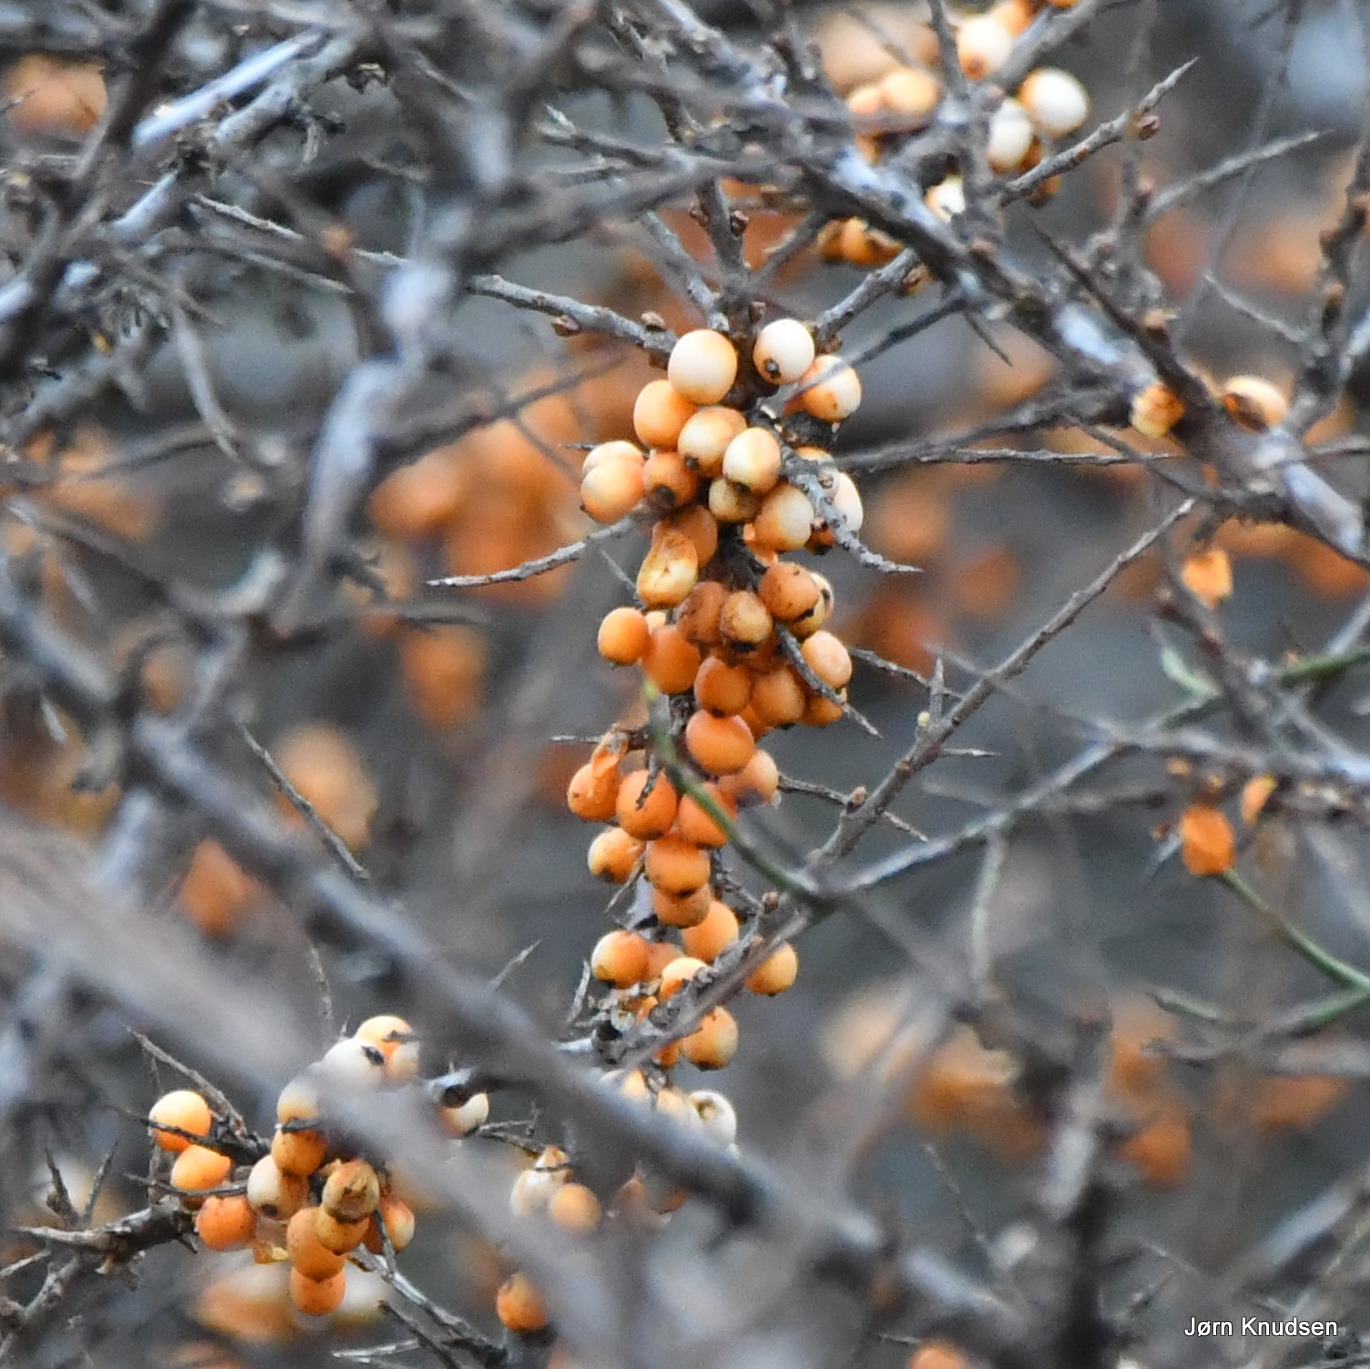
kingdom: Plantae
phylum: Tracheophyta
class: Magnoliopsida
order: Rosales
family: Elaeagnaceae
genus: Hippophae
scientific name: Hippophae rhamnoides
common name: Havtorn
